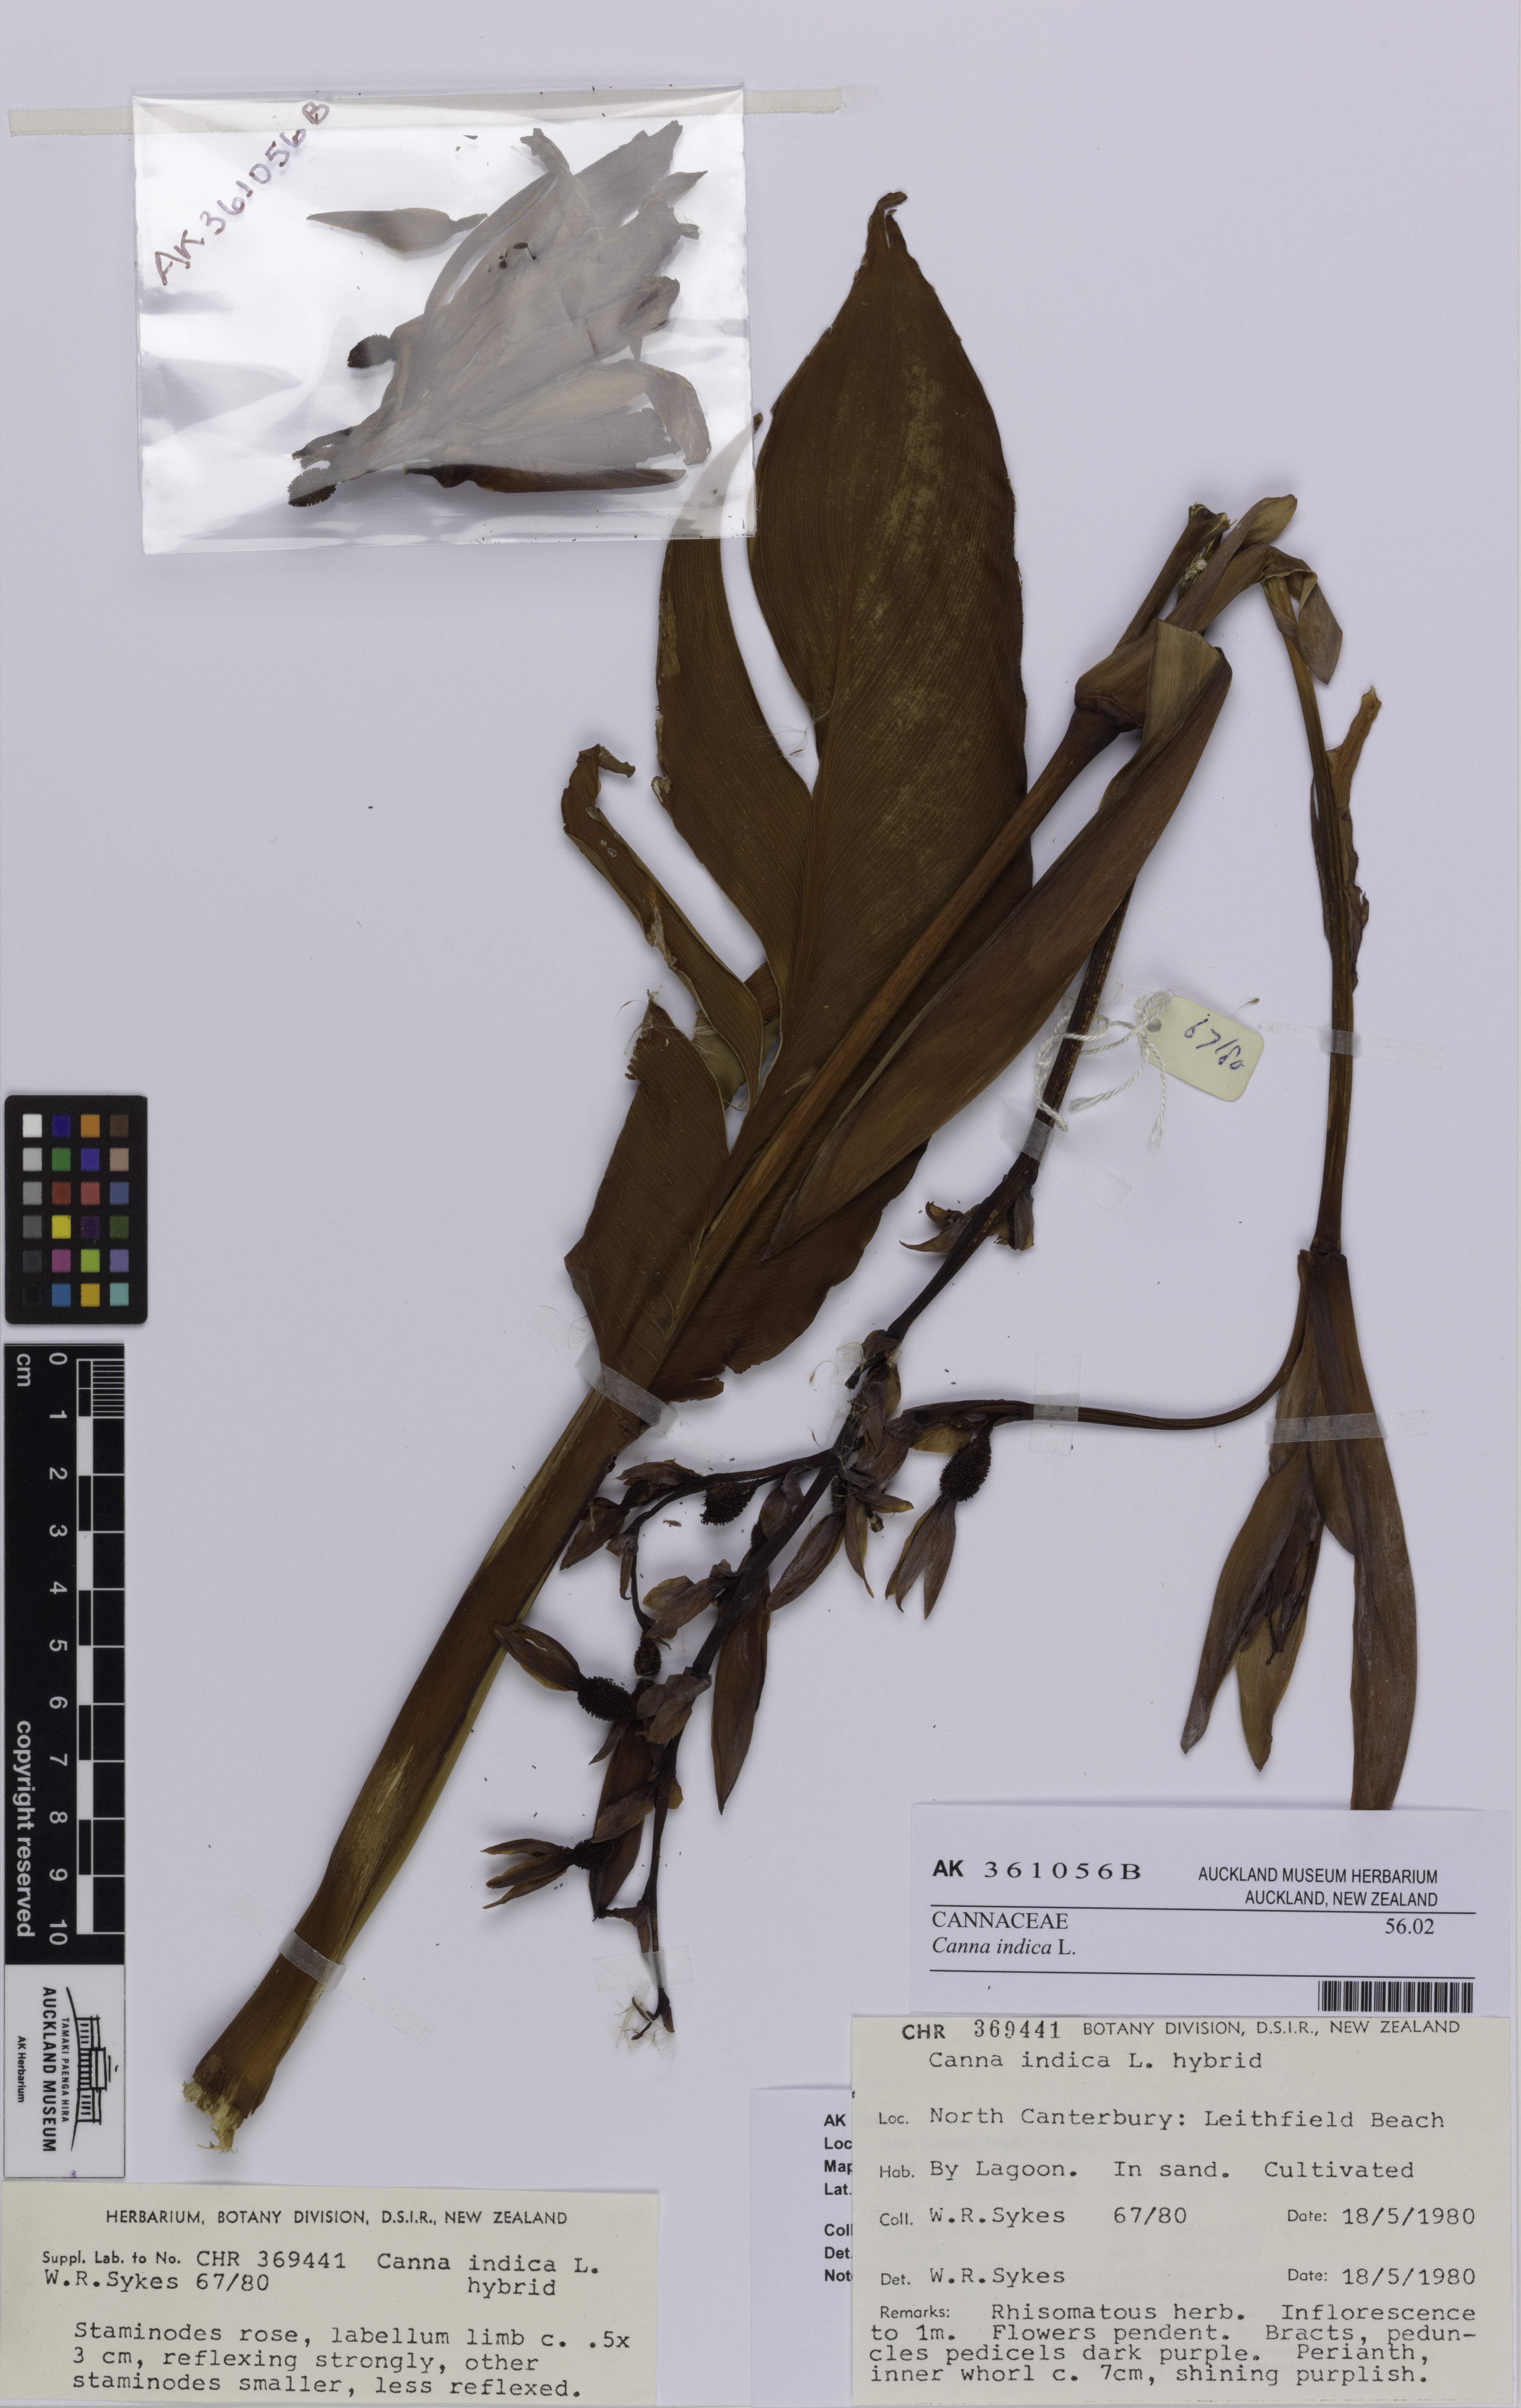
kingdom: Plantae
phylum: Tracheophyta
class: Liliopsida
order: Zingiberales
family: Cannaceae
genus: Canna
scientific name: Canna indica
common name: Indian shot
